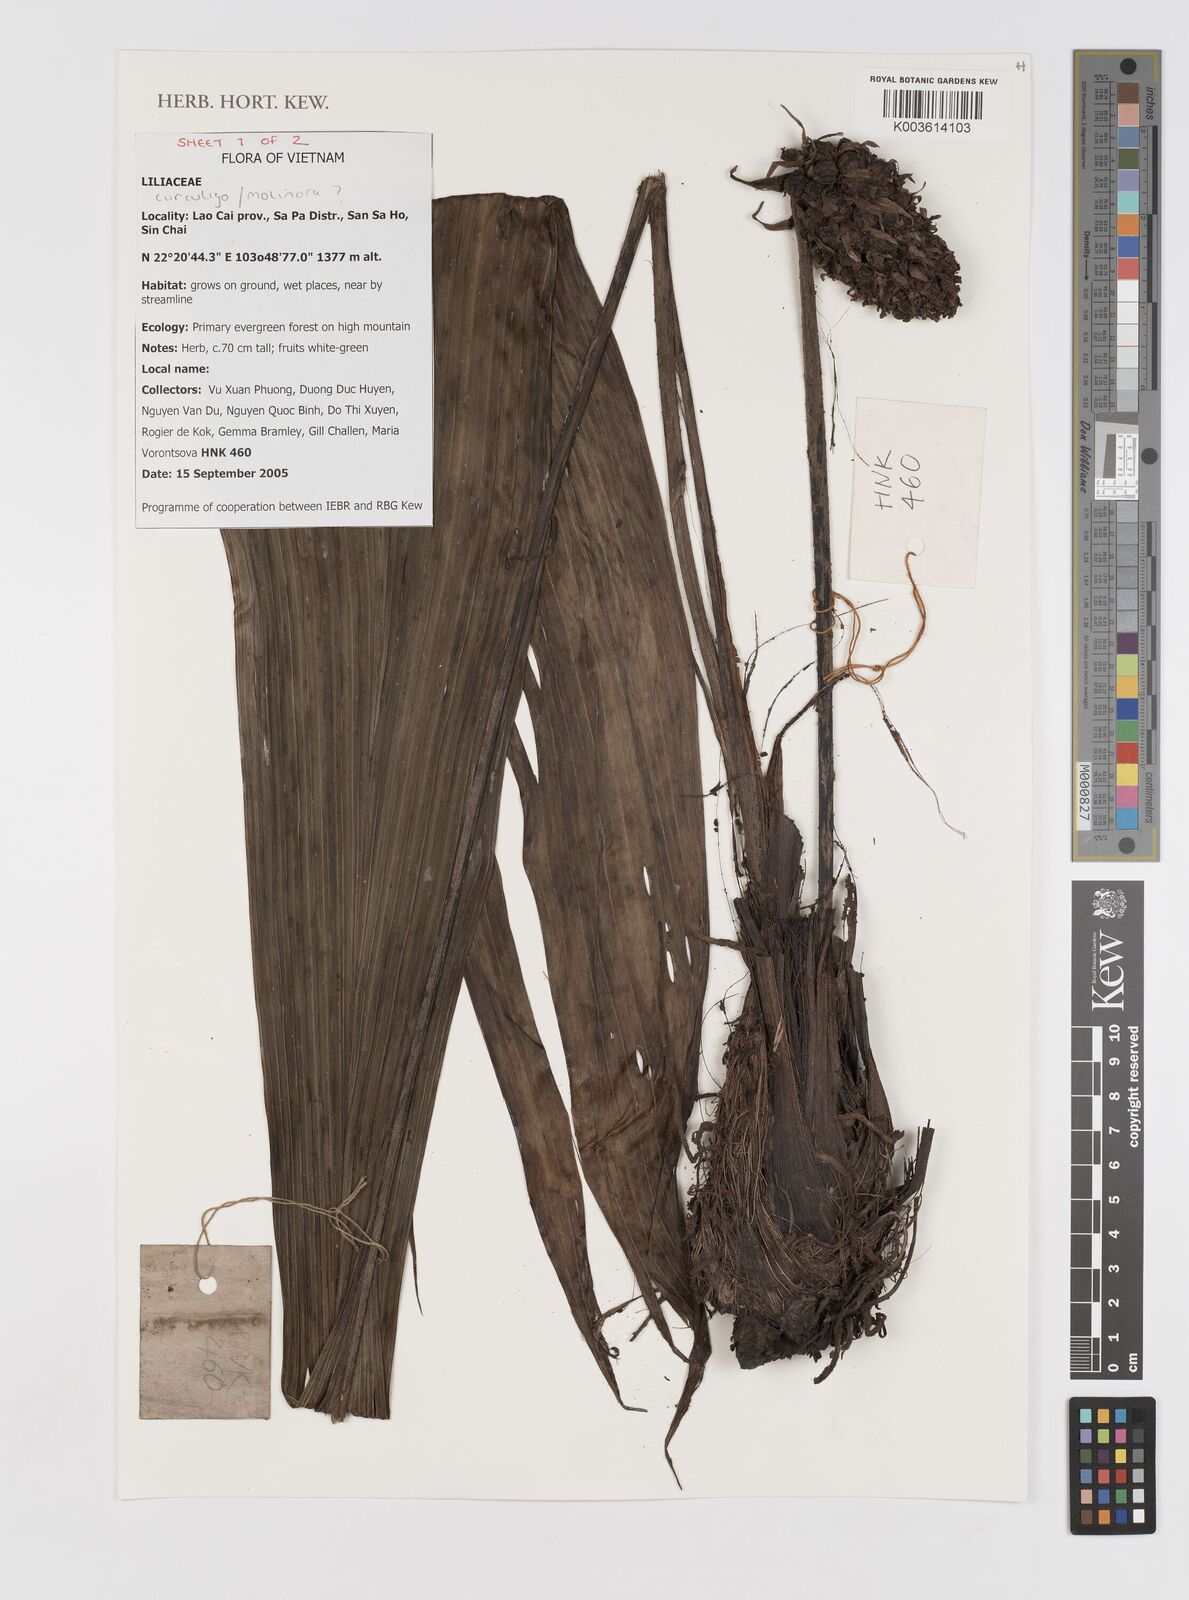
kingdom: Plantae
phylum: Tracheophyta
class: Liliopsida
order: Asparagales
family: Hypoxidaceae
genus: Curculigo
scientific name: Curculigo
